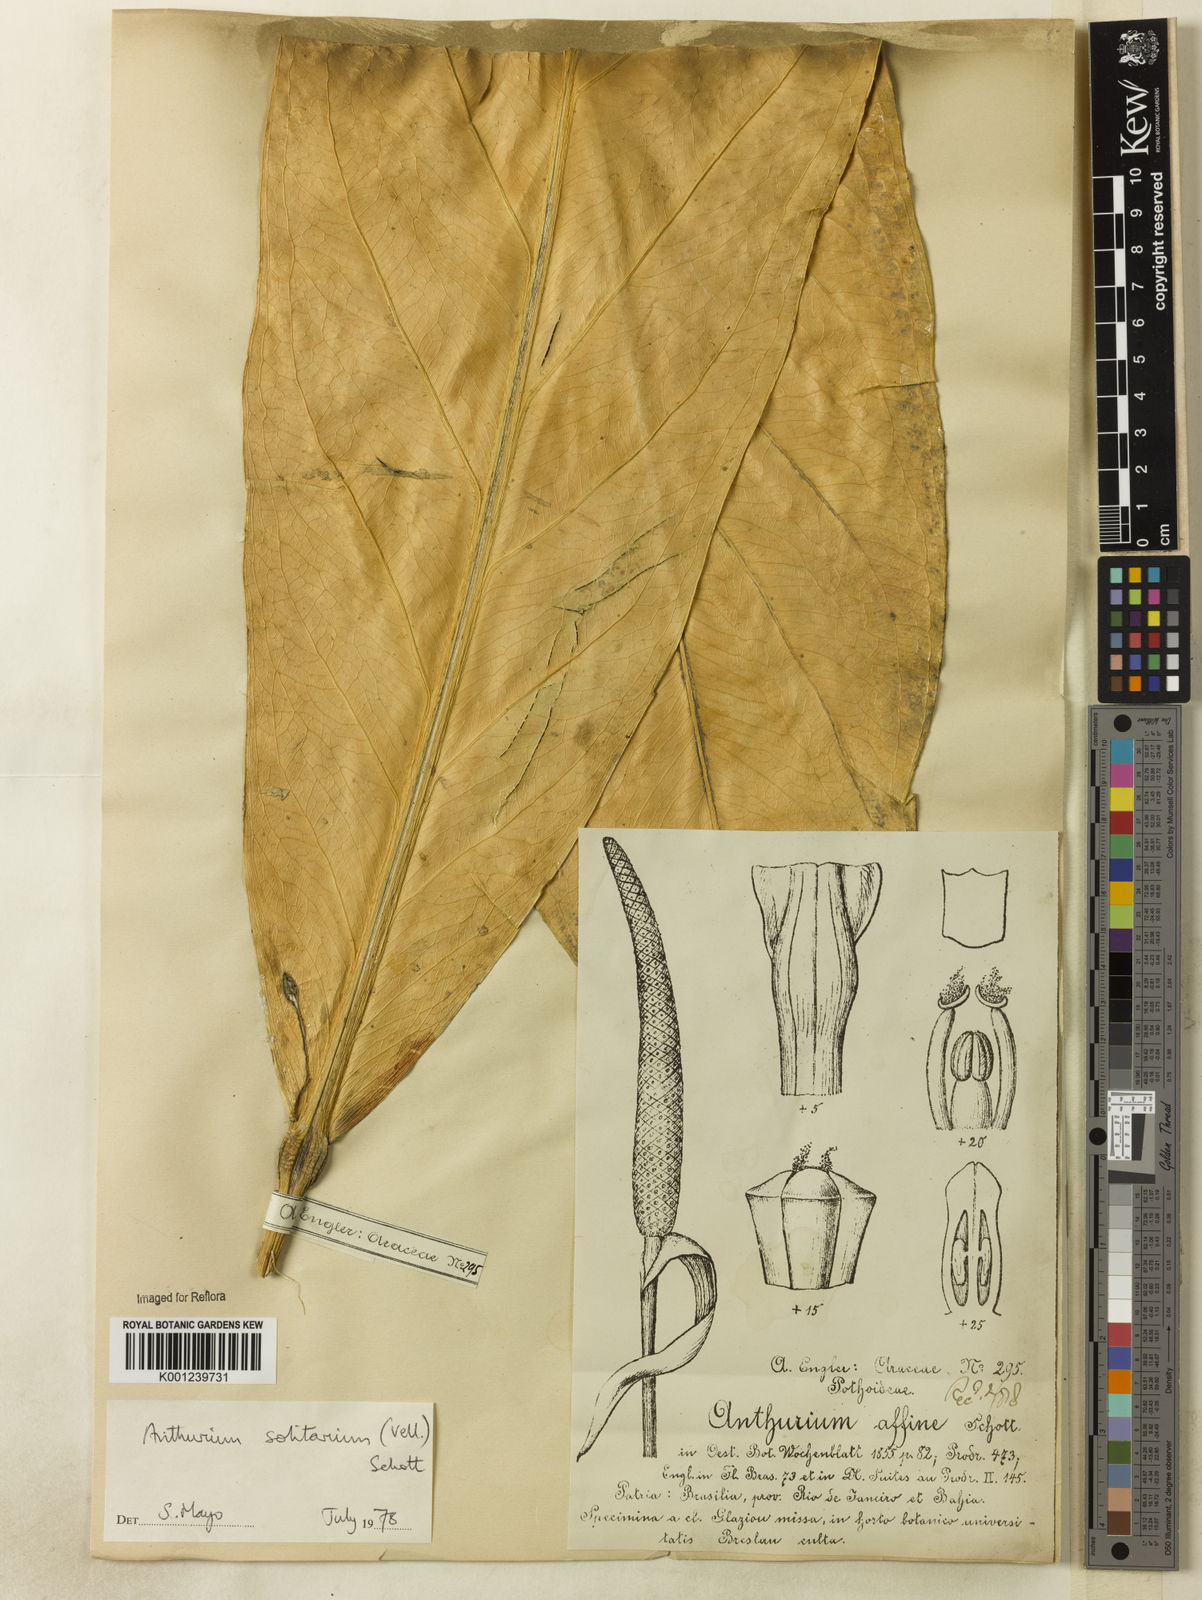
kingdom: Plantae
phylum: Tracheophyta
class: Liliopsida
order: Alismatales
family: Araceae
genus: Anthurium
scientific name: Anthurium solitarium
